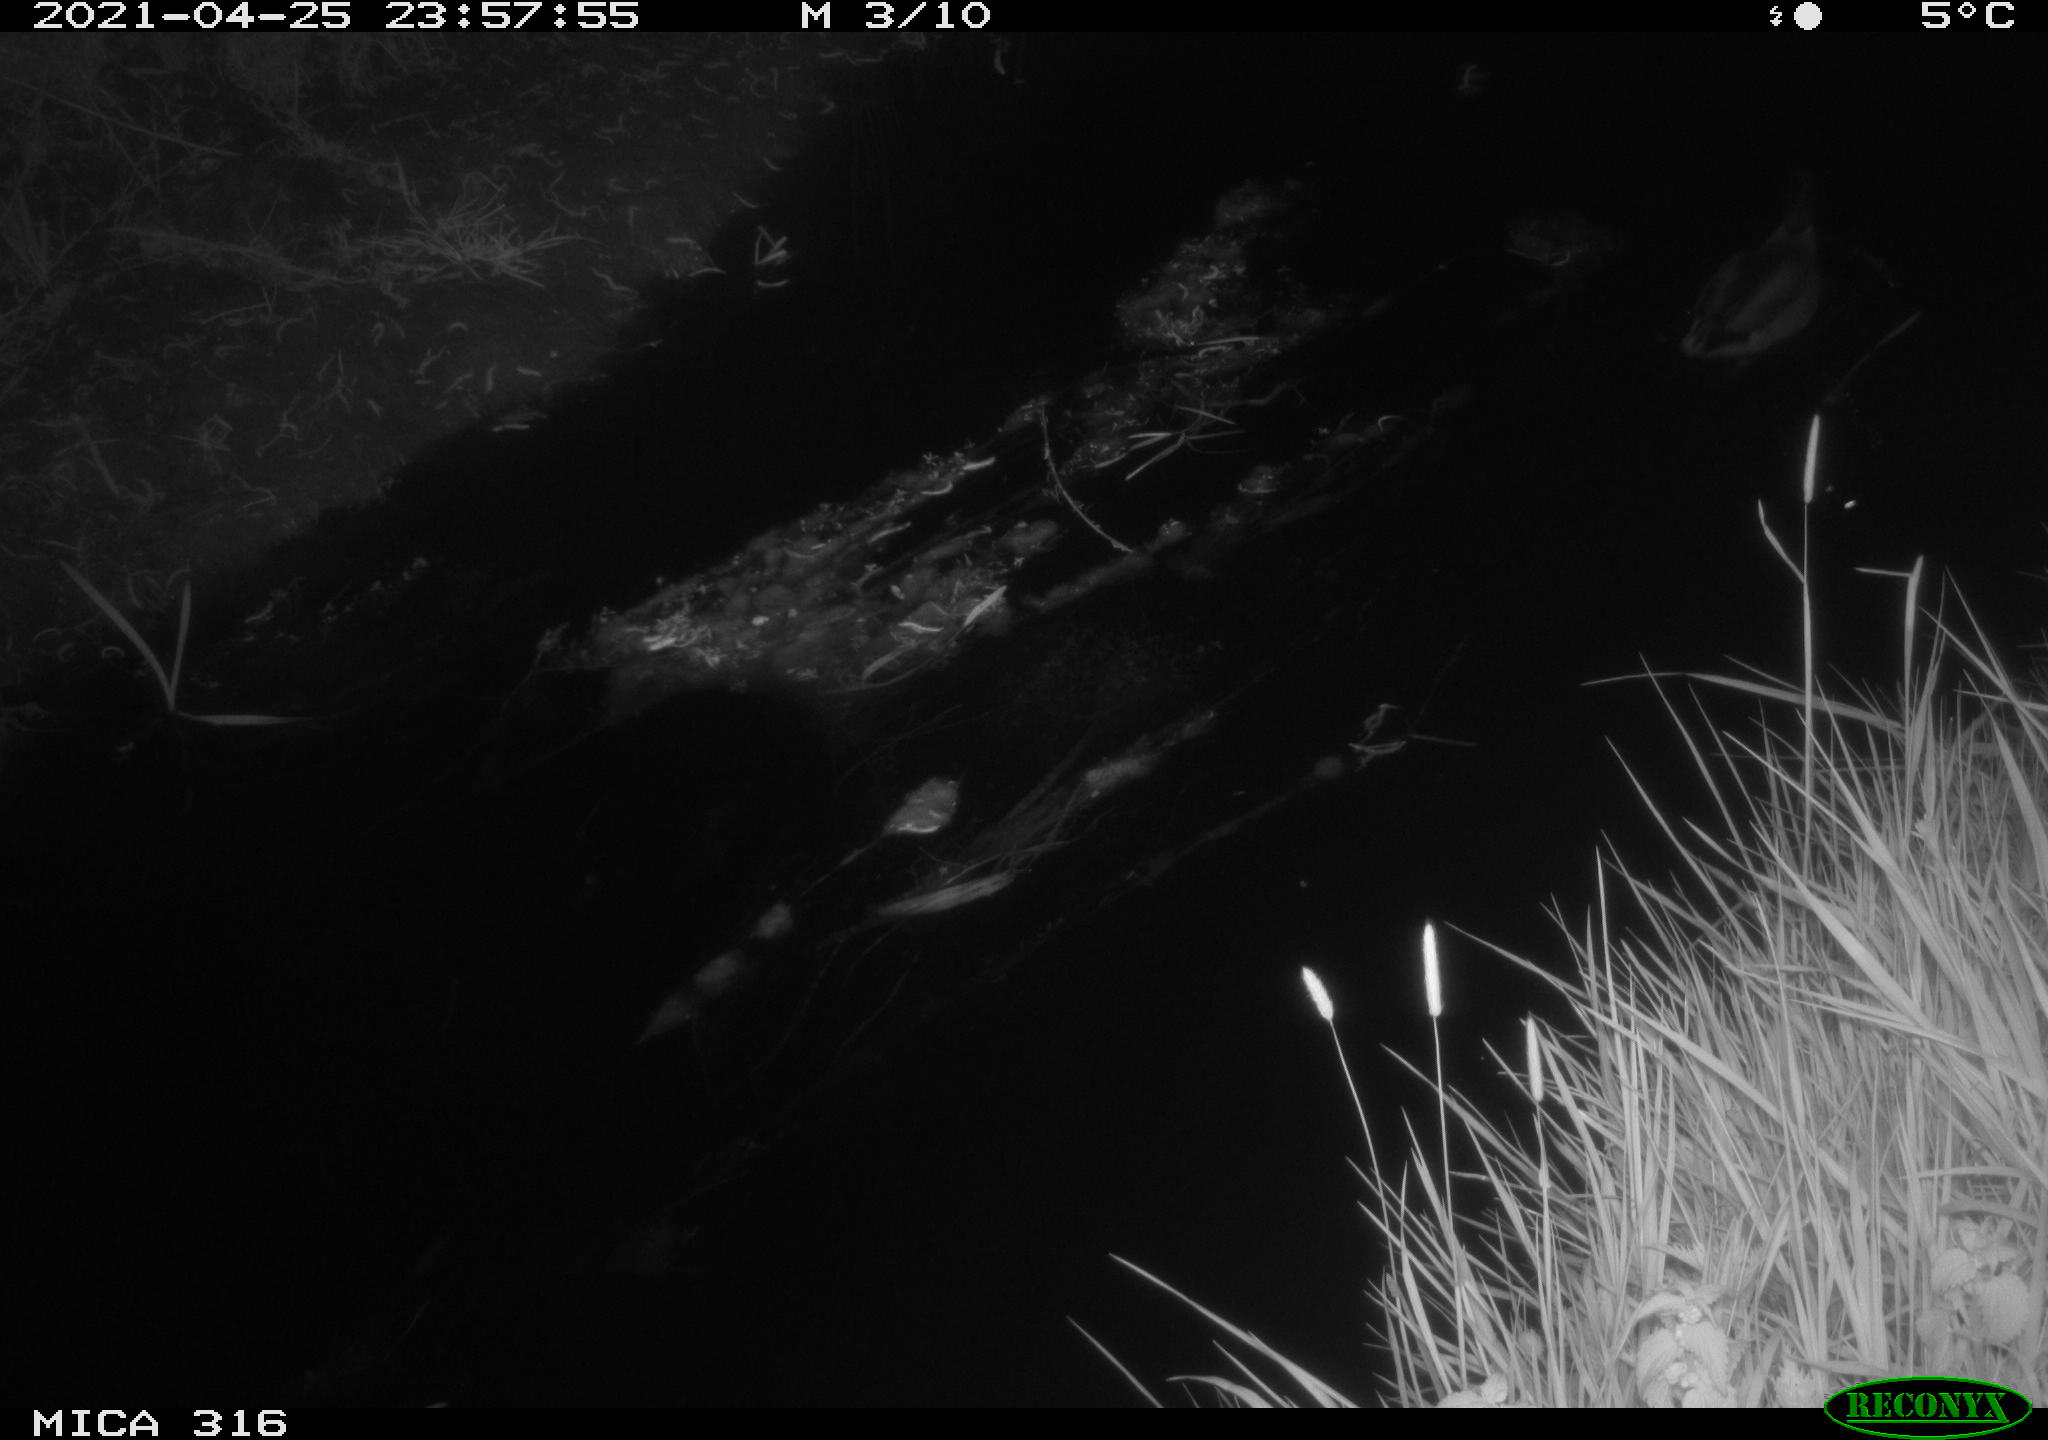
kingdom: Animalia
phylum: Chordata
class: Aves
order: Anseriformes
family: Anatidae
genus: Anas
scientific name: Anas platyrhynchos
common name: Mallard
